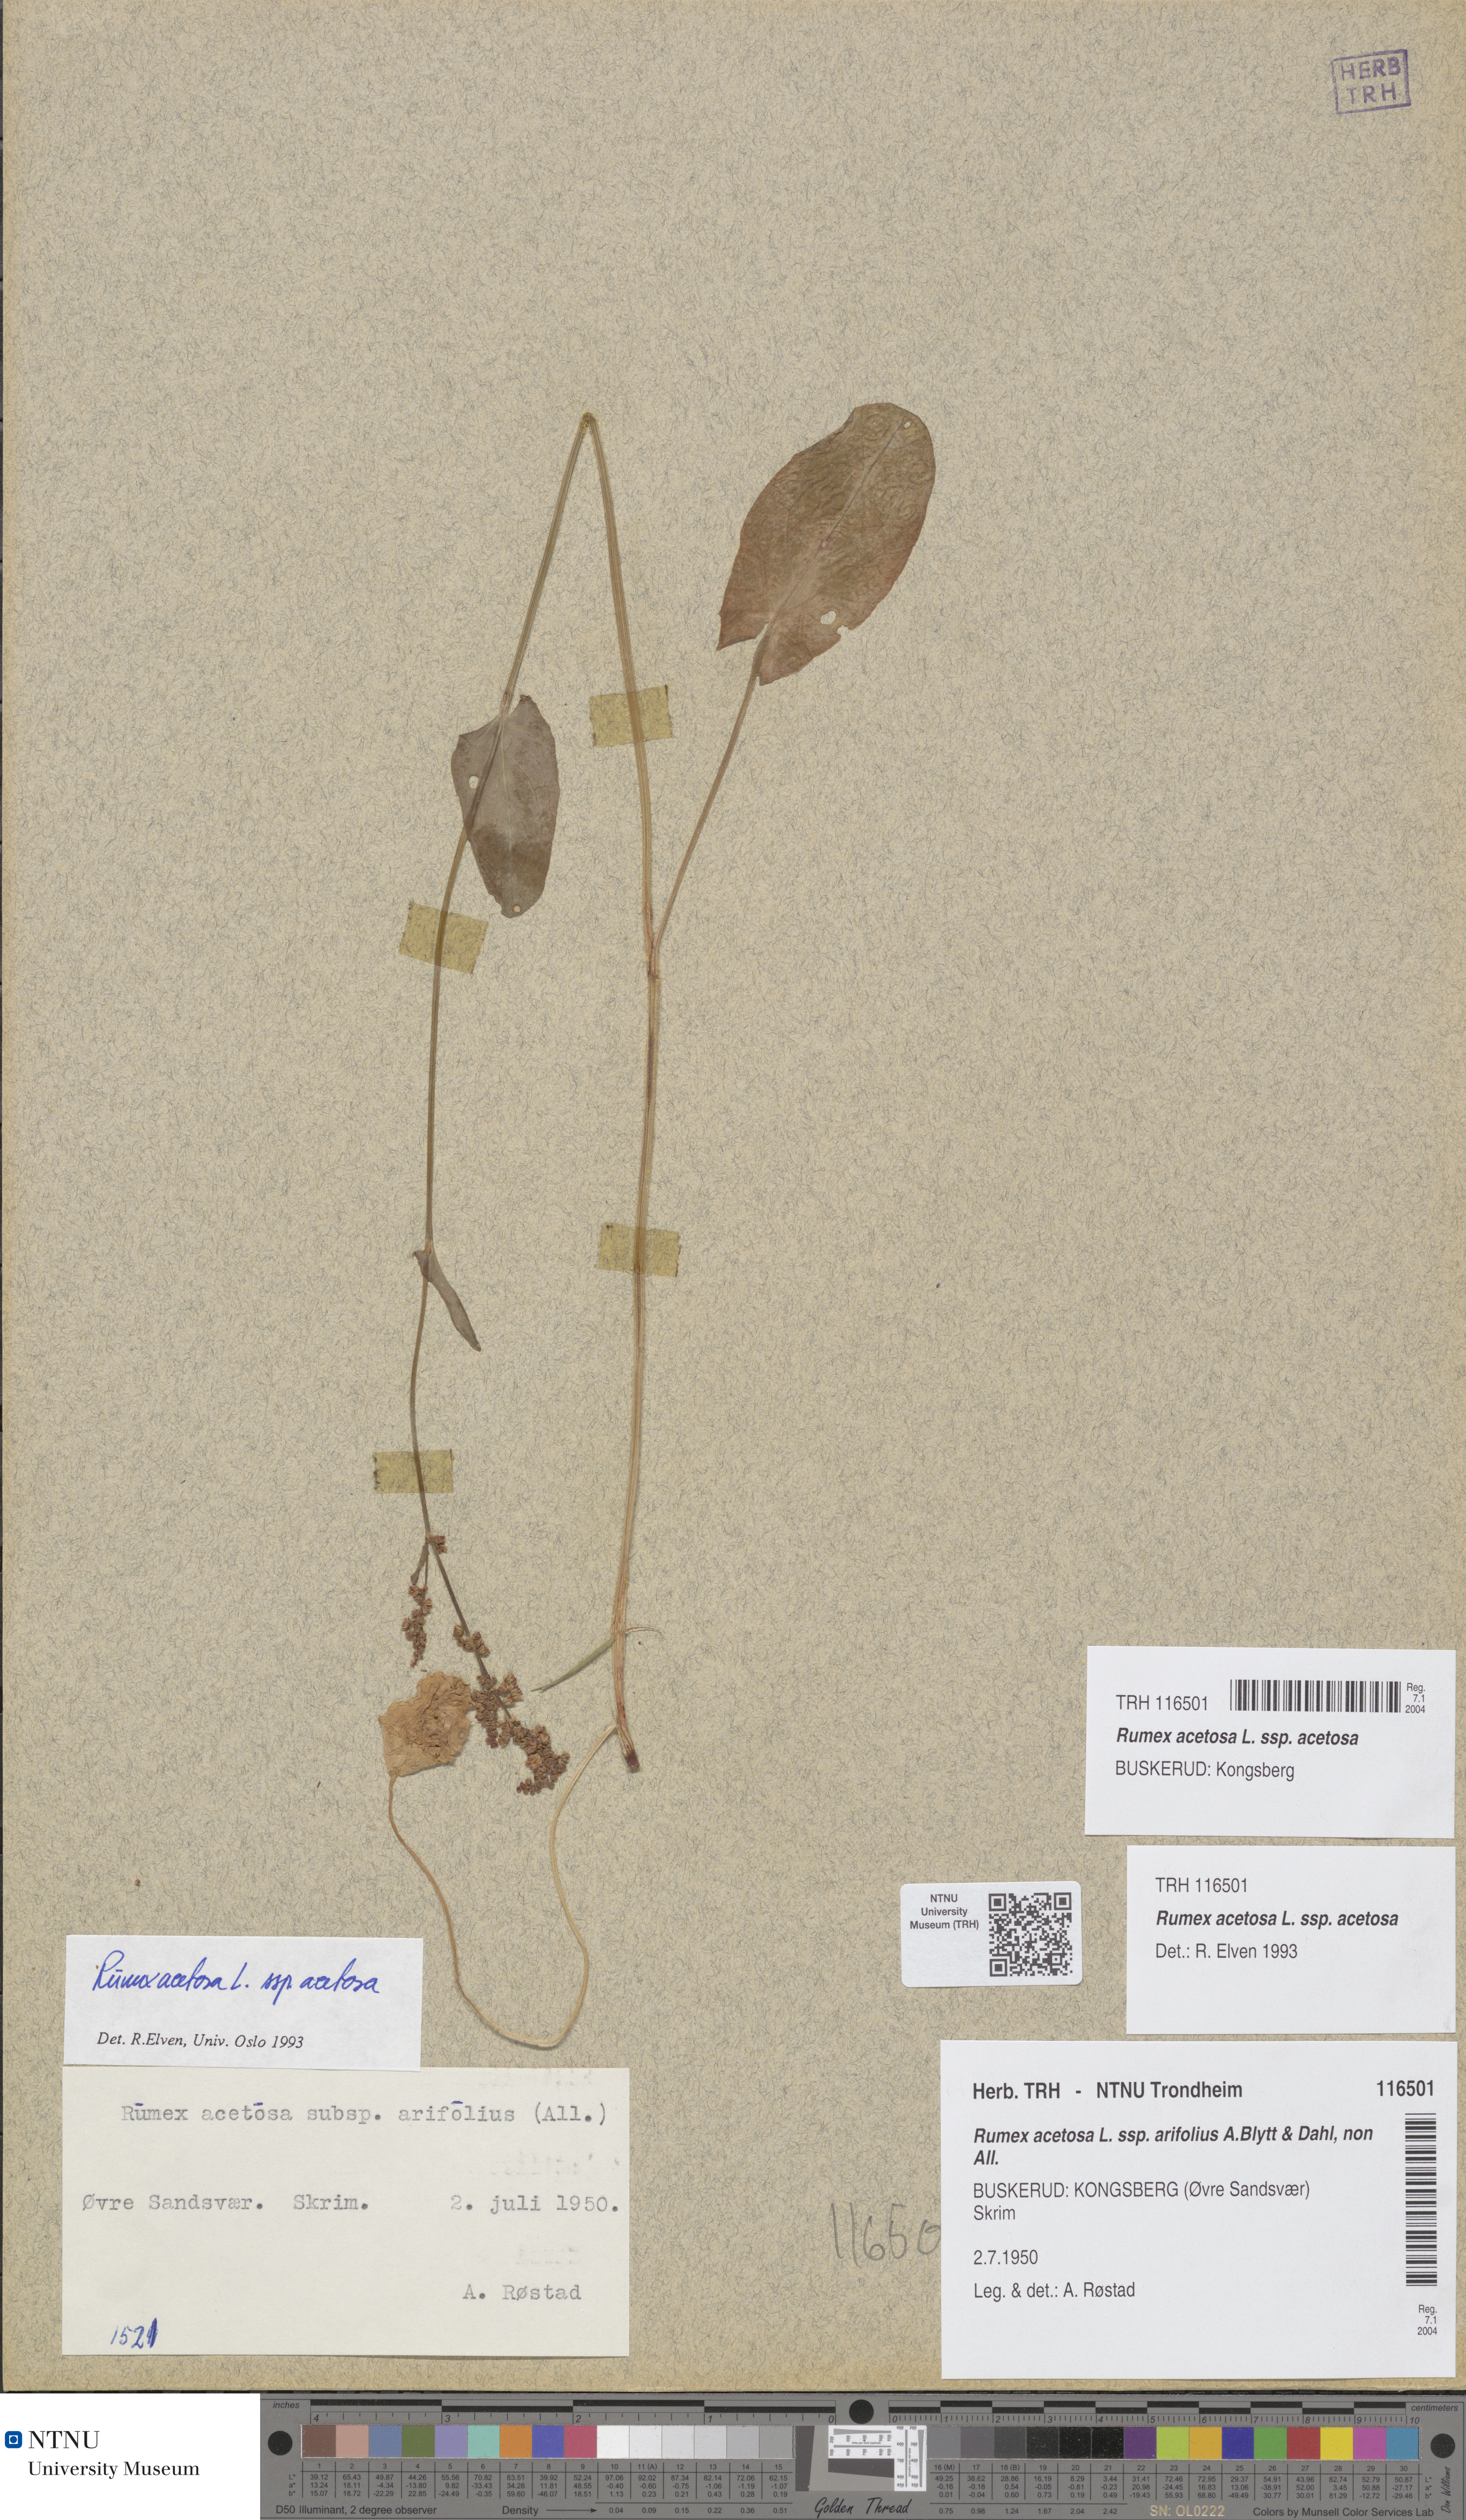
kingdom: Plantae
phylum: Tracheophyta
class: Magnoliopsida
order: Caryophyllales
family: Polygonaceae
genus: Rumex
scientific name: Rumex acetosa
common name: Garden sorrel
